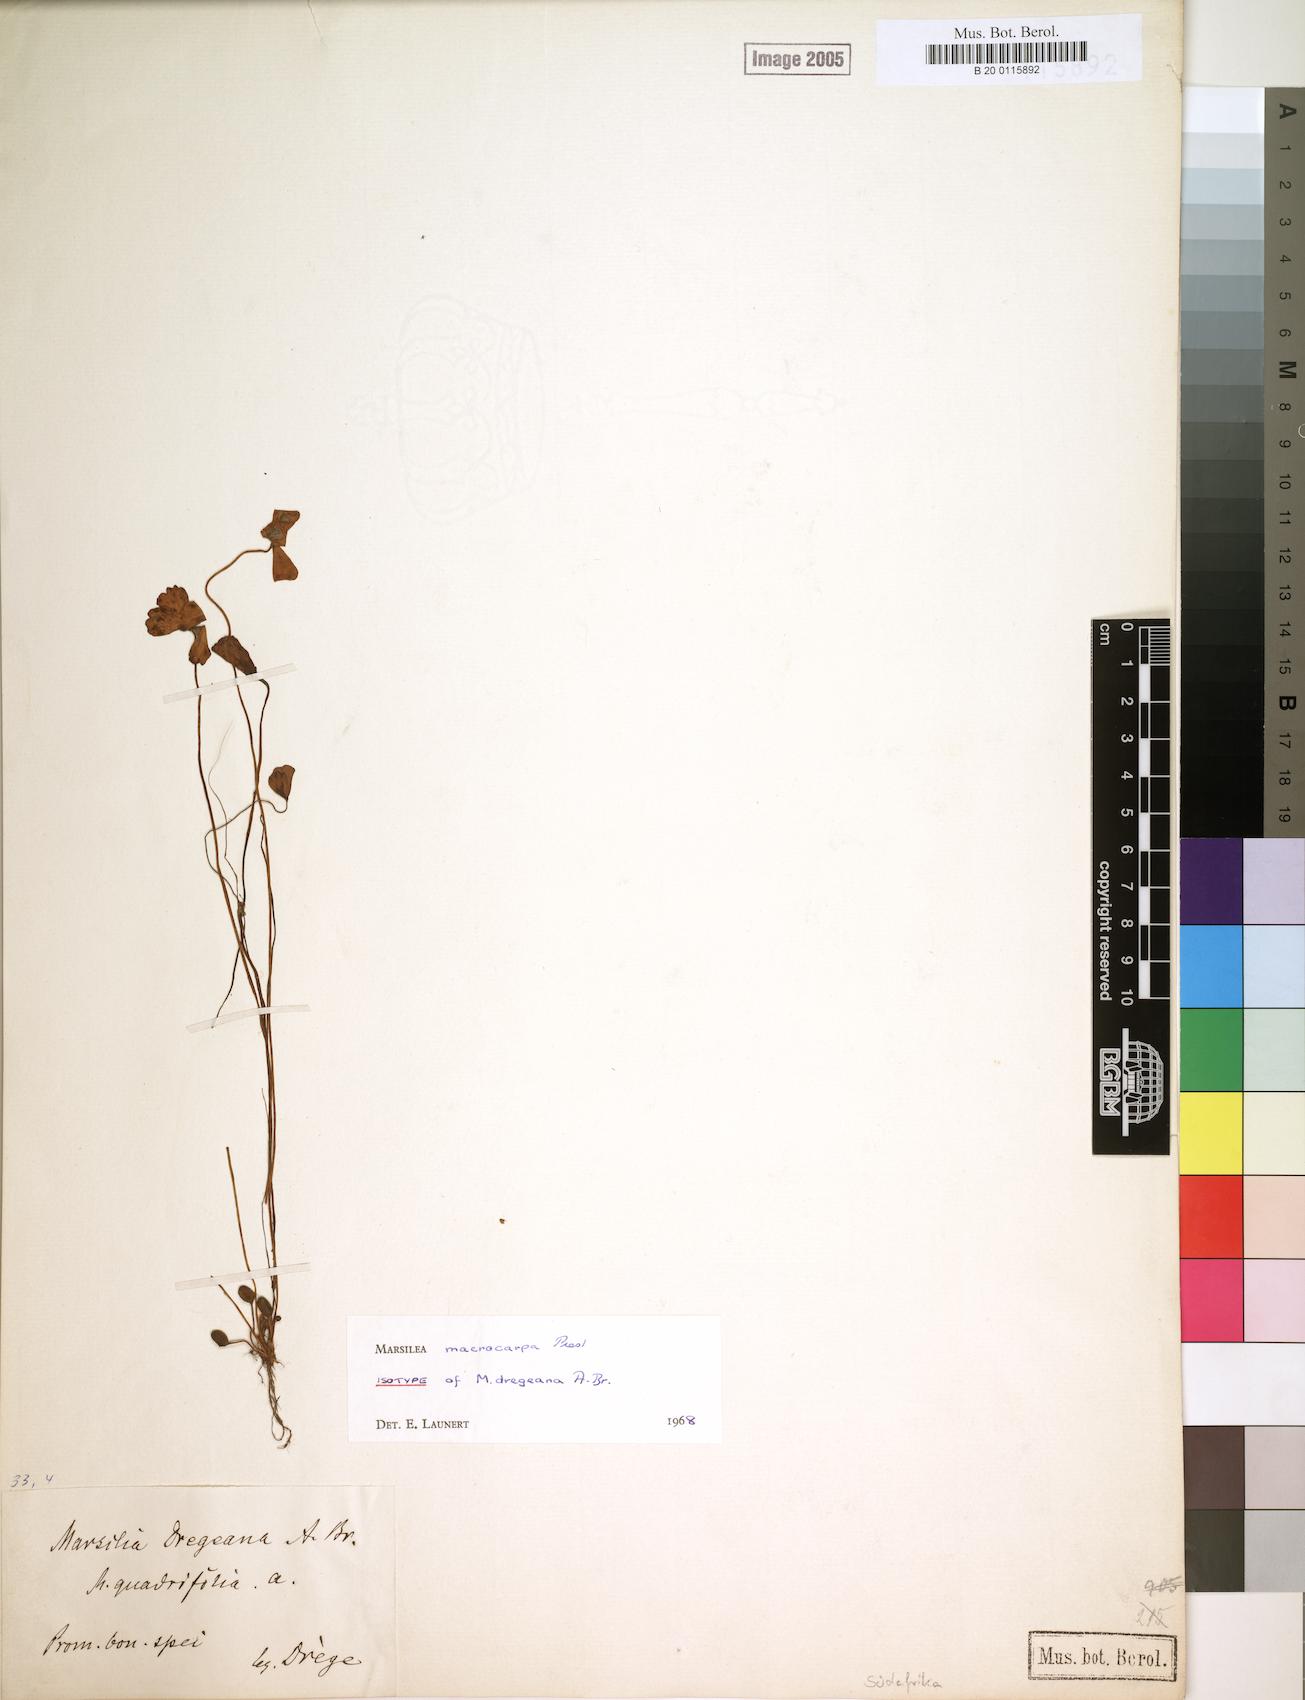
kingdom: Plantae
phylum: Tracheophyta
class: Polypodiopsida
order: Salviniales
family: Marsileaceae
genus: Marsilea
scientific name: Marsilea macrocarpa
